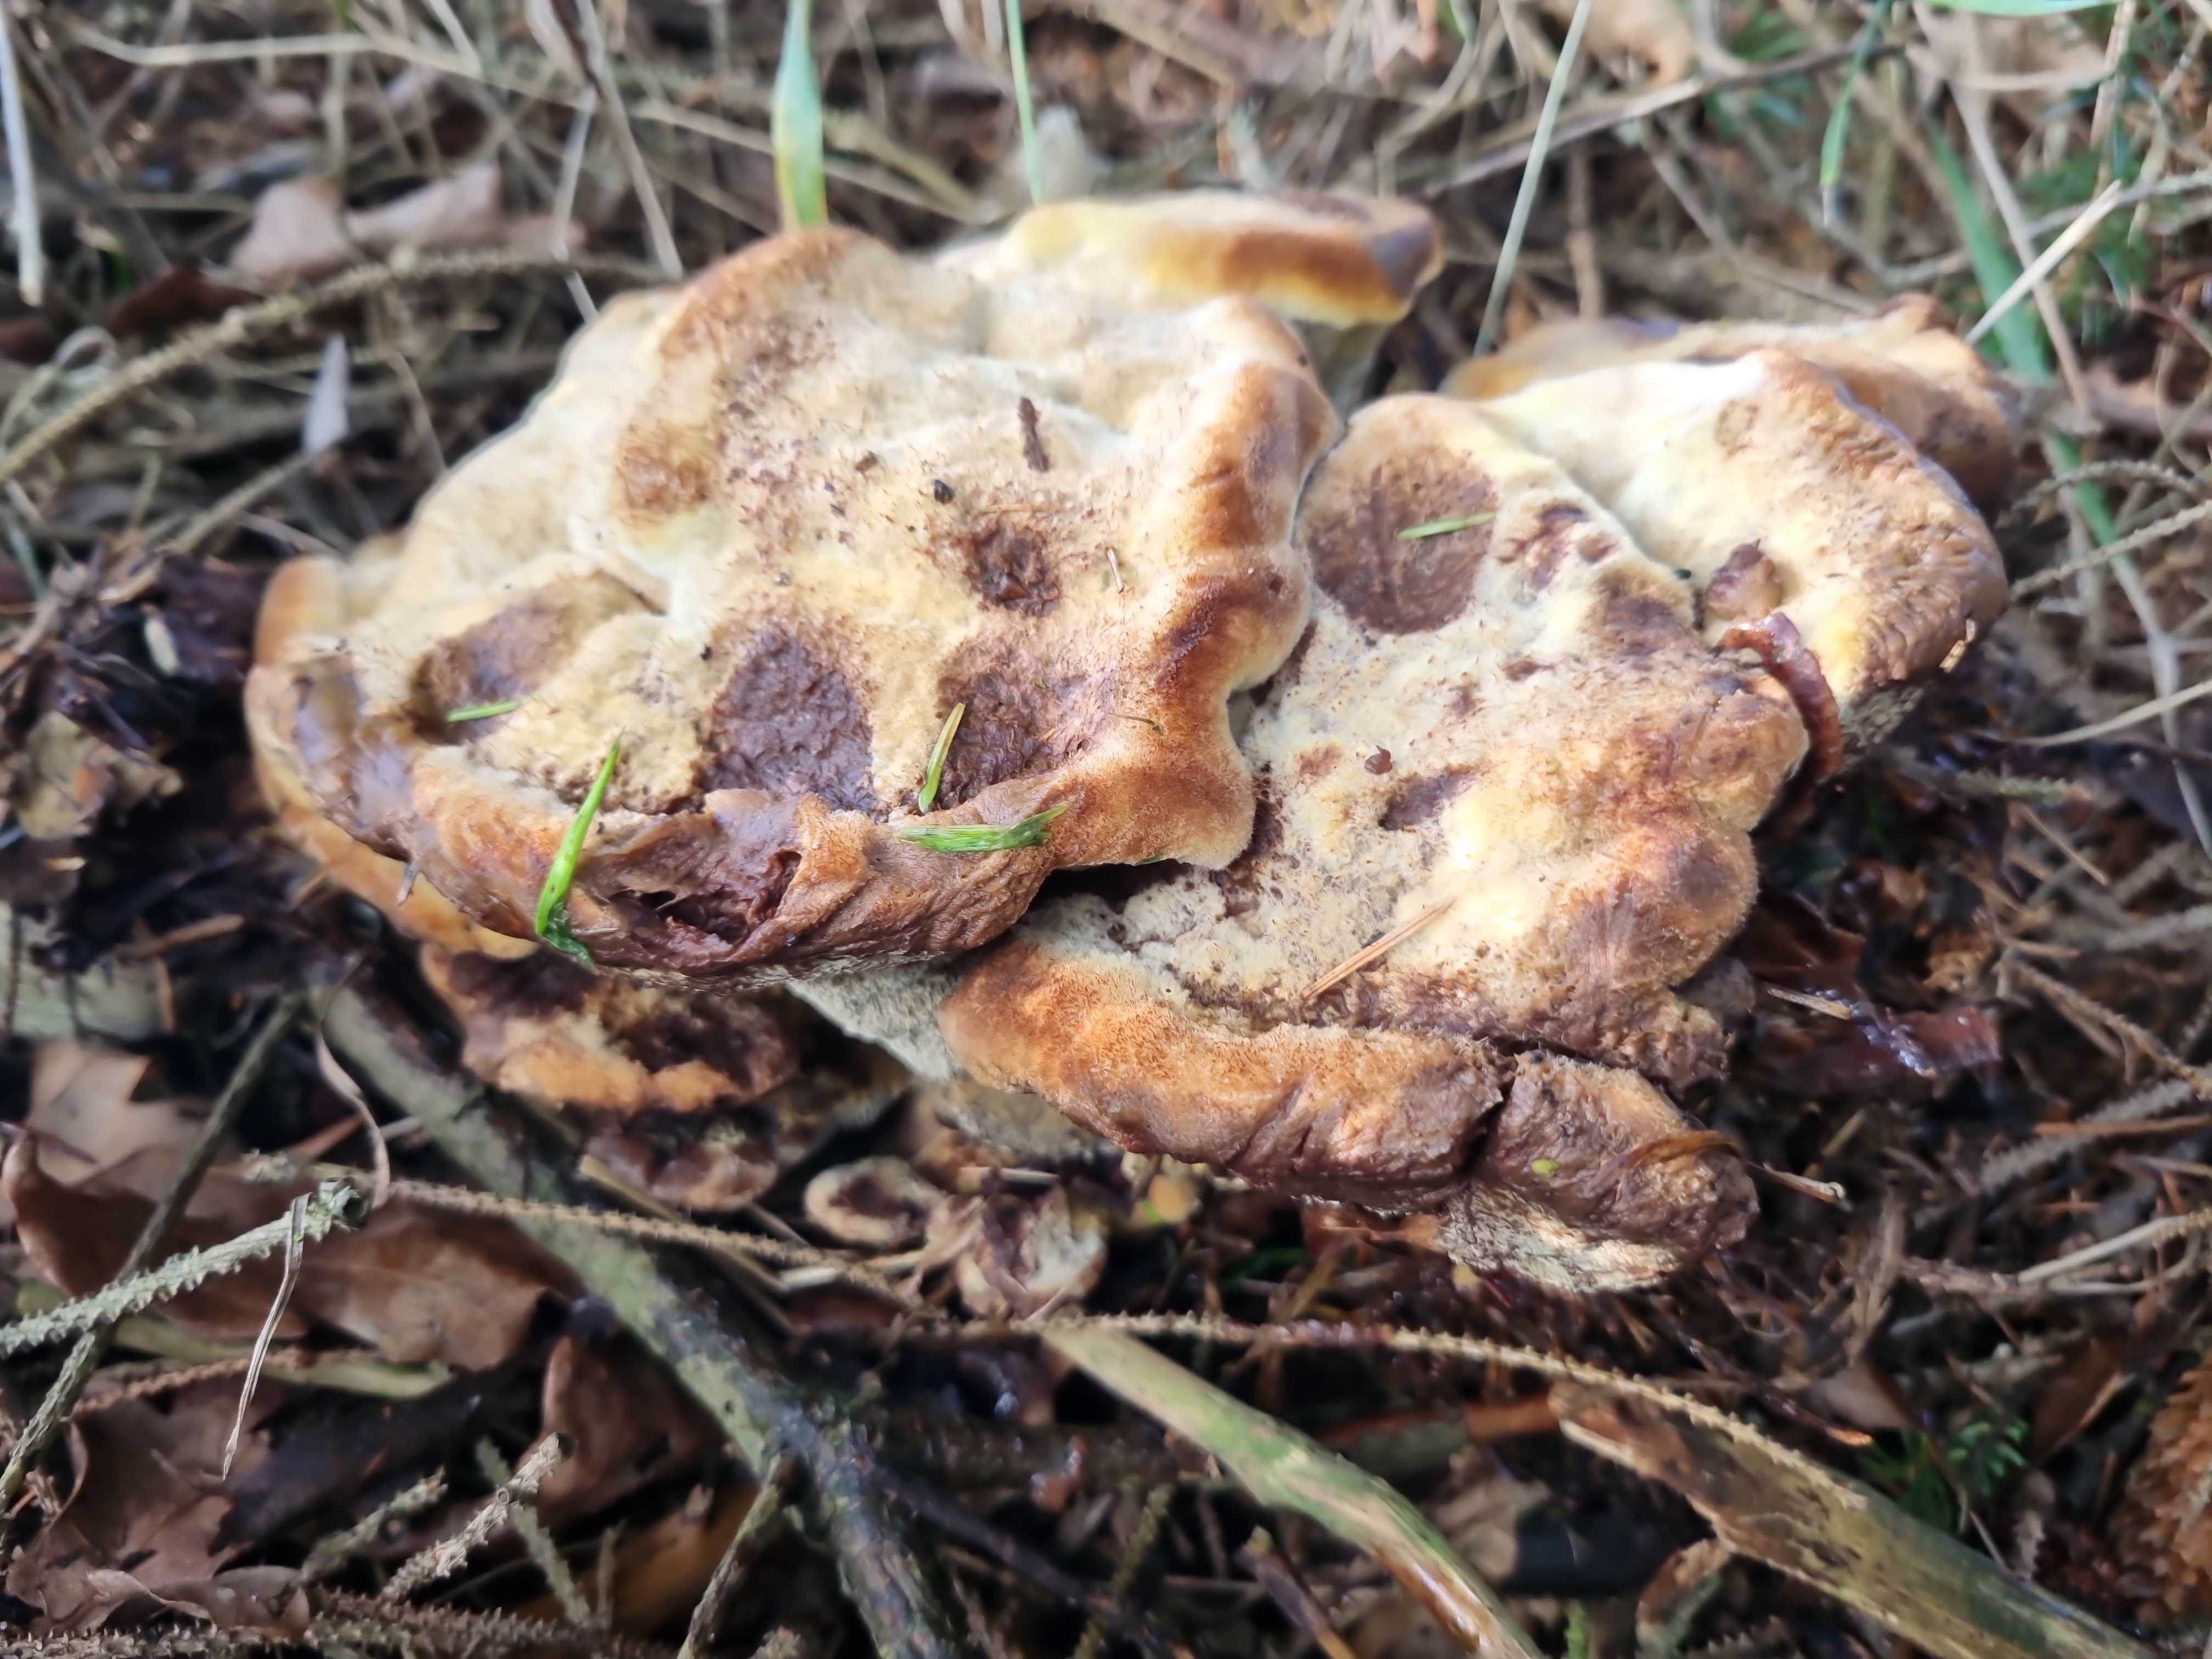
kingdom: Fungi
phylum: Basidiomycota
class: Agaricomycetes
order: Polyporales
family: Laetiporaceae
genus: Phaeolus
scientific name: Phaeolus schweinitzii
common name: brunporesvamp
